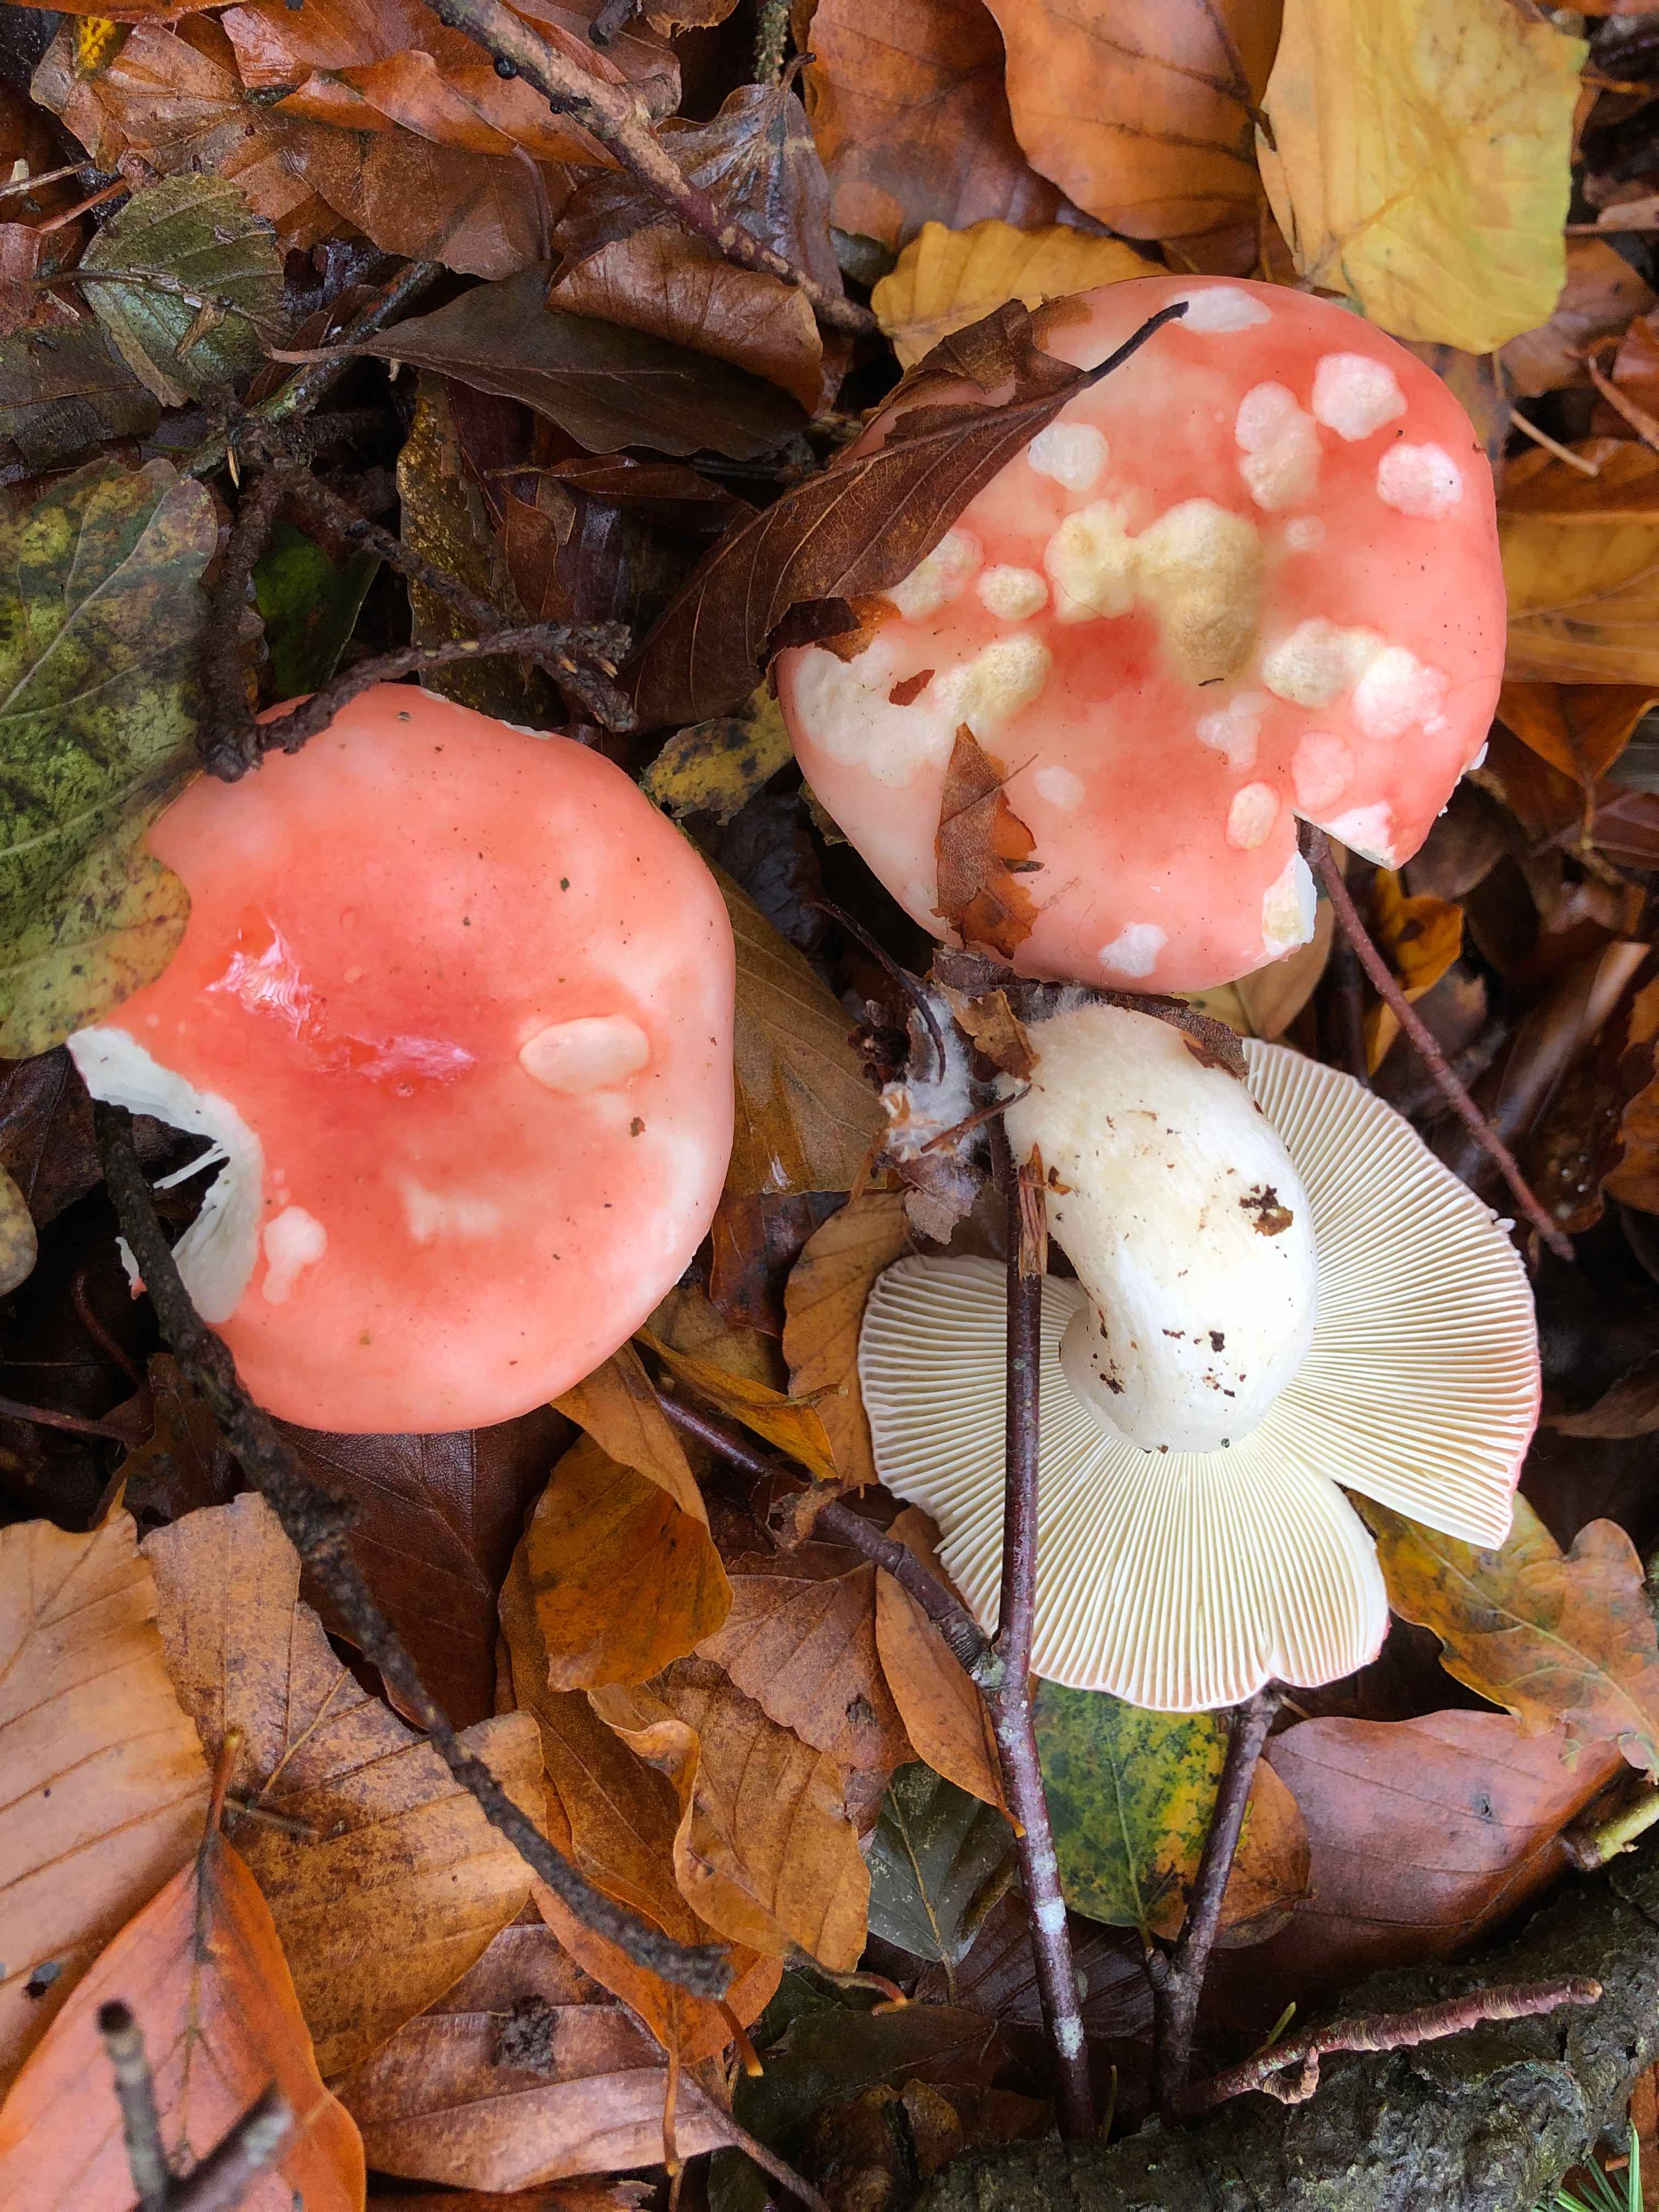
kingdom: Fungi
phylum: Basidiomycota
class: Agaricomycetes
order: Russulales
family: Russulaceae
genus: Russula
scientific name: Russula silvestris
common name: mellemstor gift-skørhat
